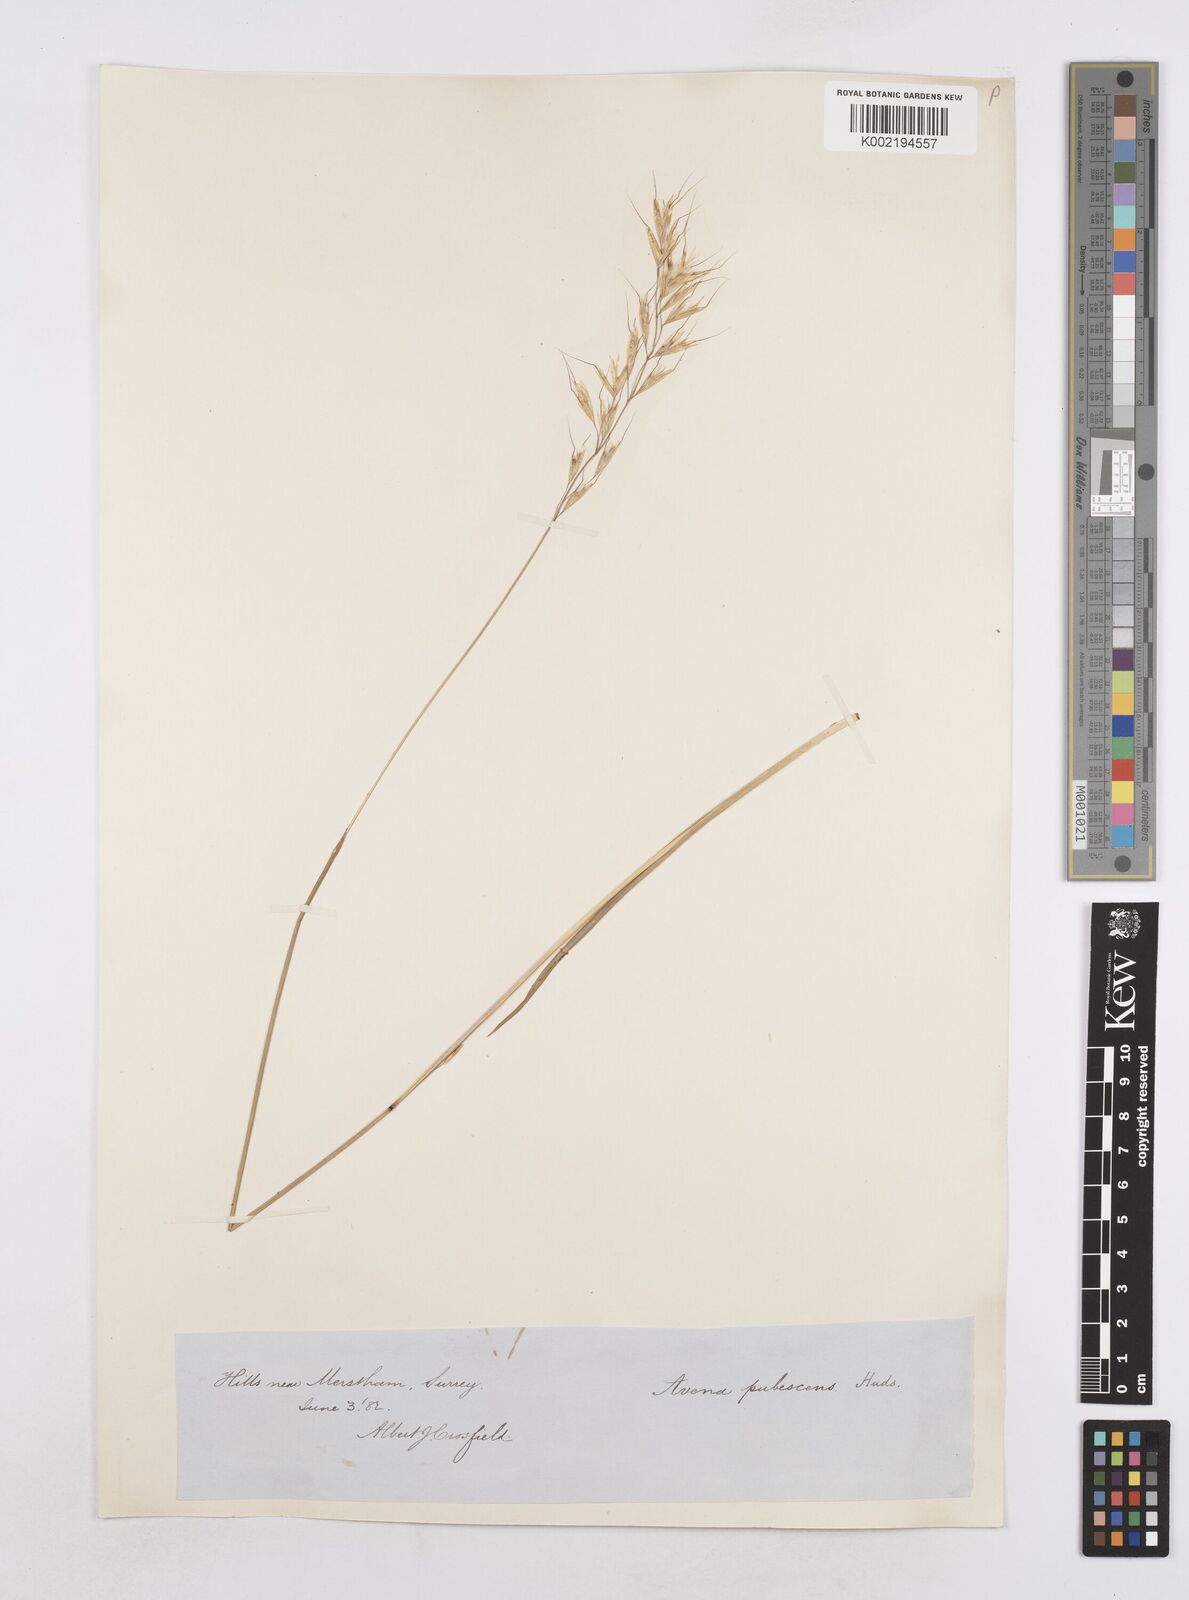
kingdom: Plantae
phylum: Tracheophyta
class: Liliopsida
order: Poales
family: Poaceae
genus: Avenula
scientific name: Avenula pubescens
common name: Downy alpine oatgrass
